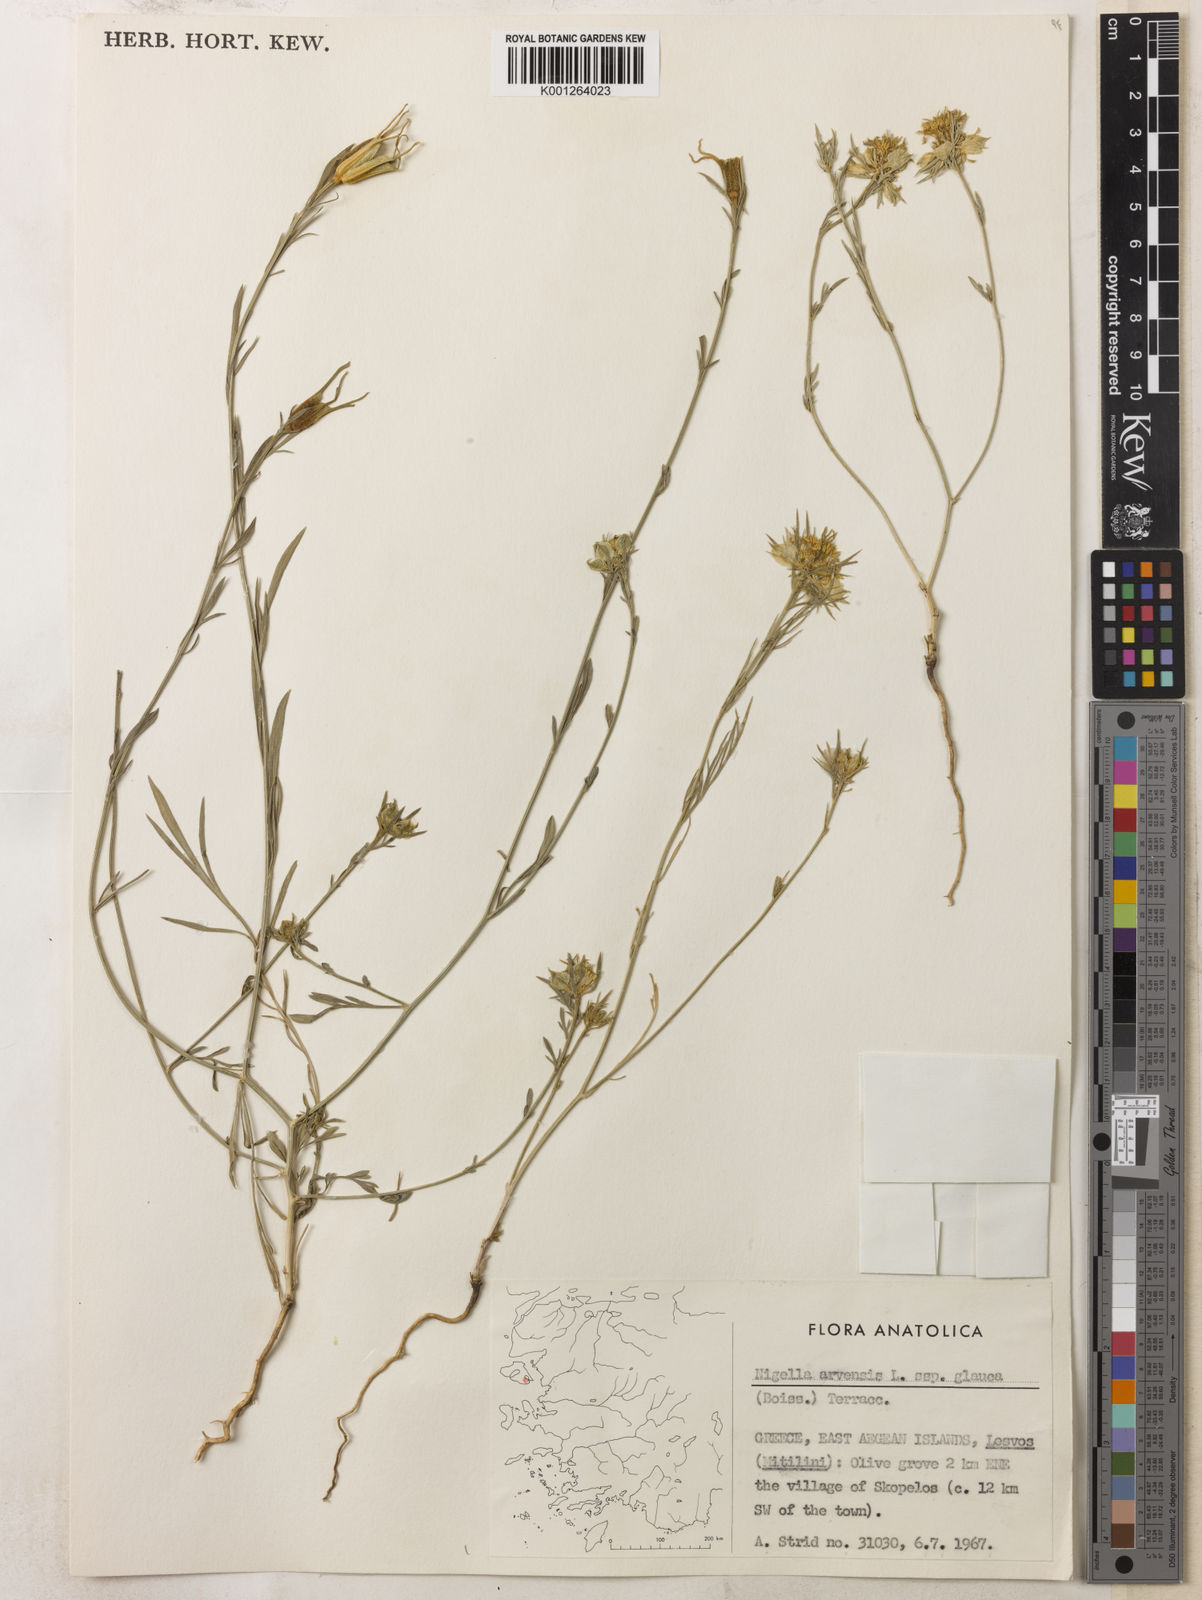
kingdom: Plantae
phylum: Tracheophyta
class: Magnoliopsida
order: Ranunculales
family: Ranunculaceae
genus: Nigella
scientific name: Nigella arvensis
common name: Wild fennel-flower
